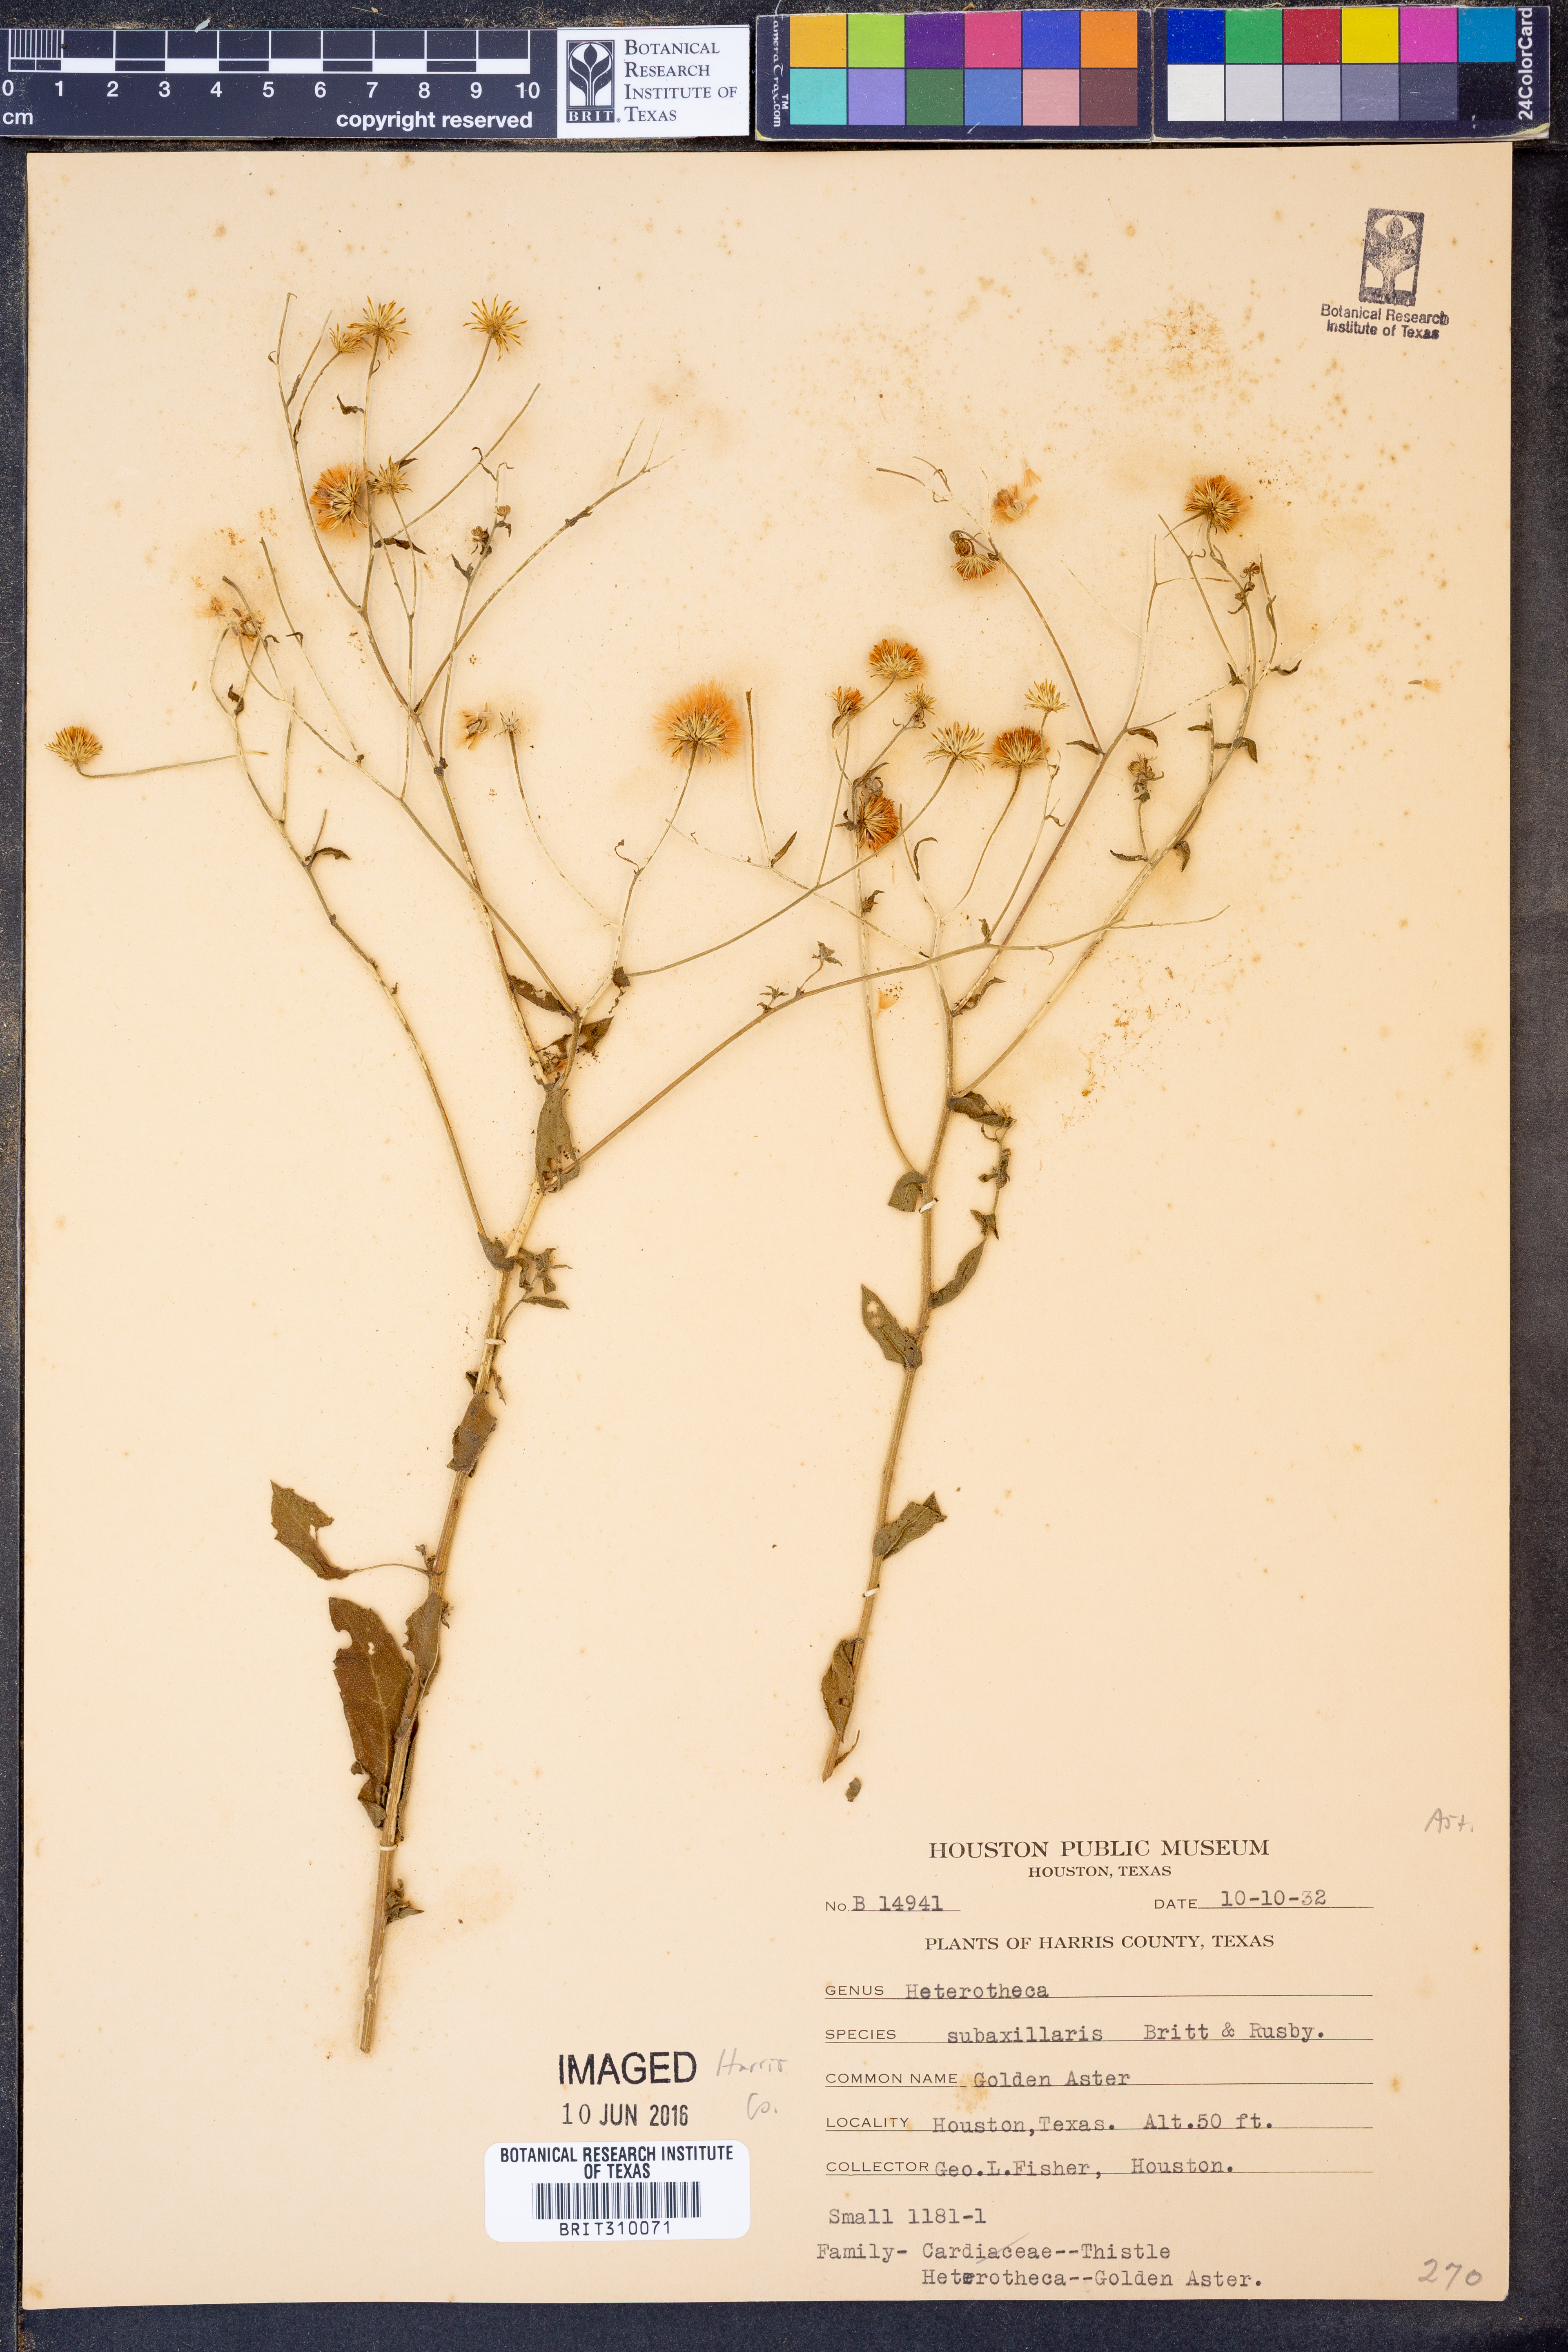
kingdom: Plantae
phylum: Tracheophyta
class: Magnoliopsida
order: Asterales
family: Asteraceae
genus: Heterotheca
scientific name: Heterotheca subaxillaris
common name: Camphorweed
